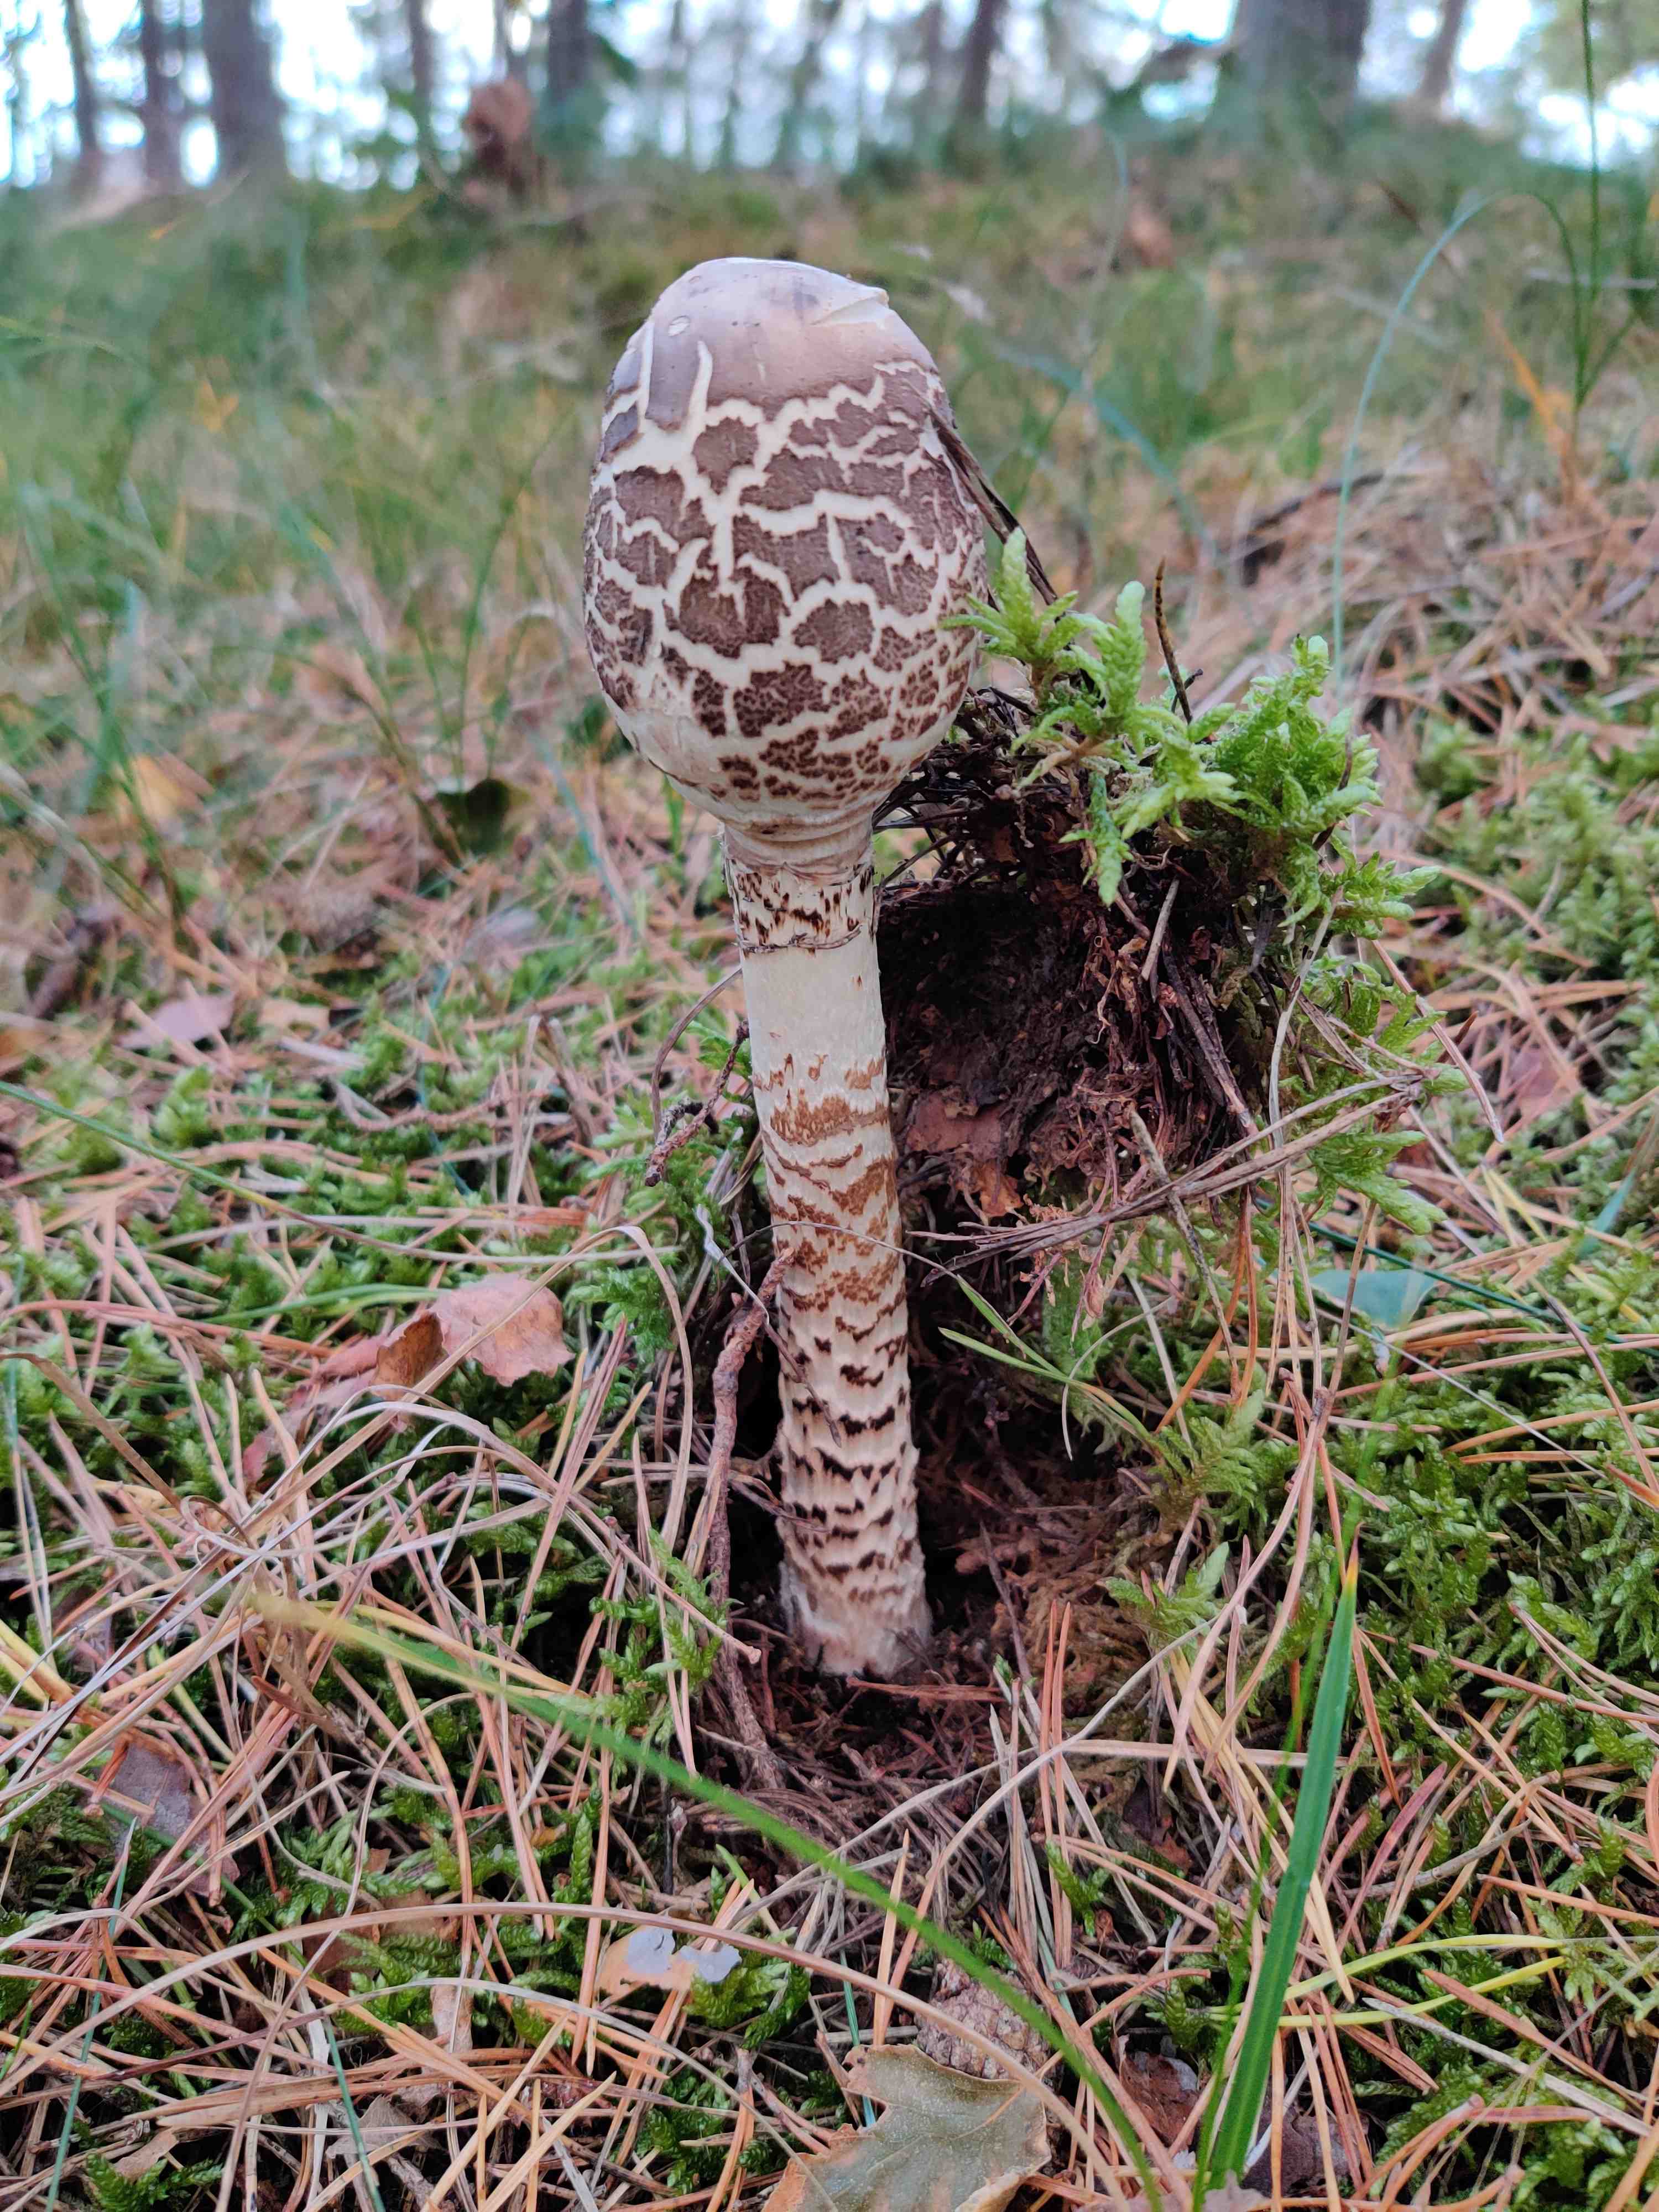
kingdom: Fungi
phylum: Basidiomycota
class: Agaricomycetes
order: Agaricales
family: Agaricaceae
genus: Macrolepiota
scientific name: Macrolepiota procera
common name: stor kæmpeparasolhat
